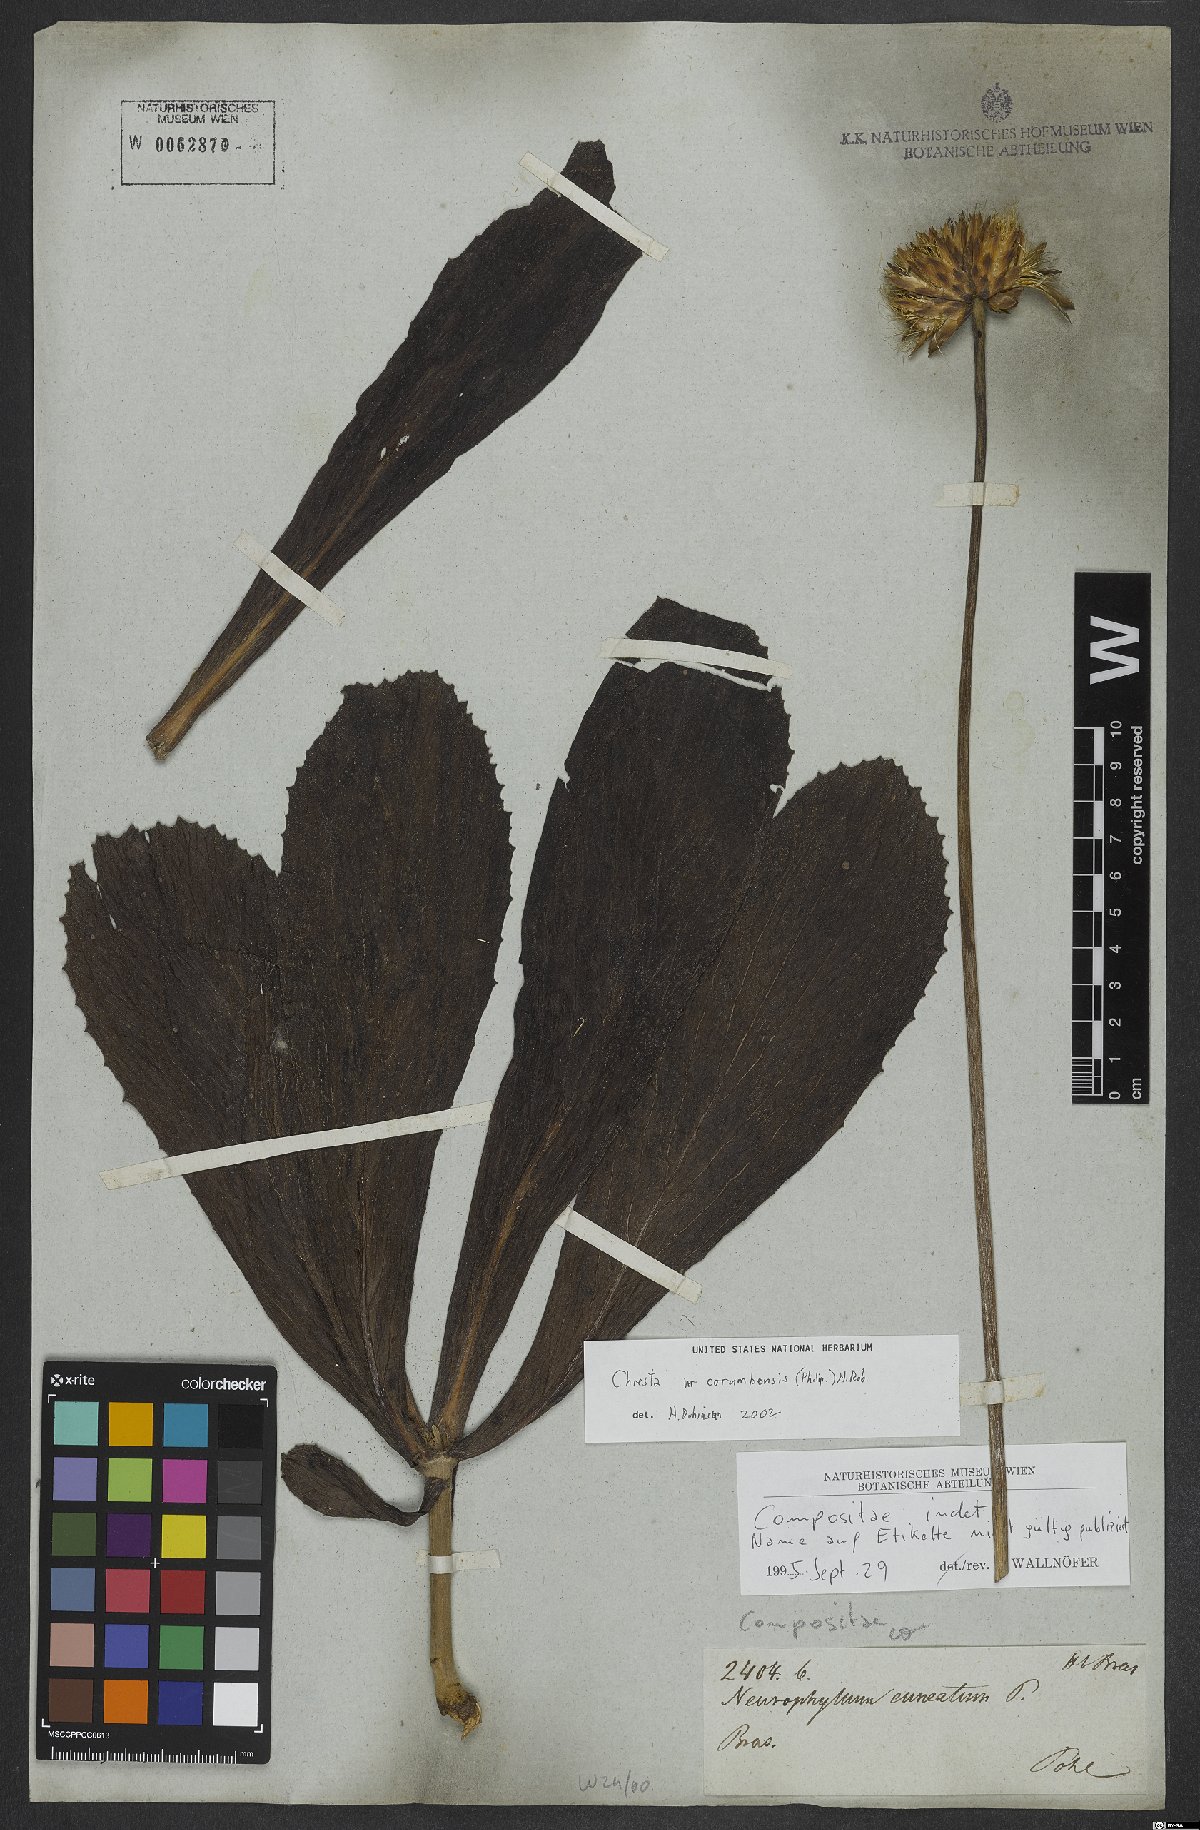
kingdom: Plantae
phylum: Tracheophyta
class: Magnoliopsida
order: Asterales
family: Asteraceae
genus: Chresta
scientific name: Chresta curumbensis
